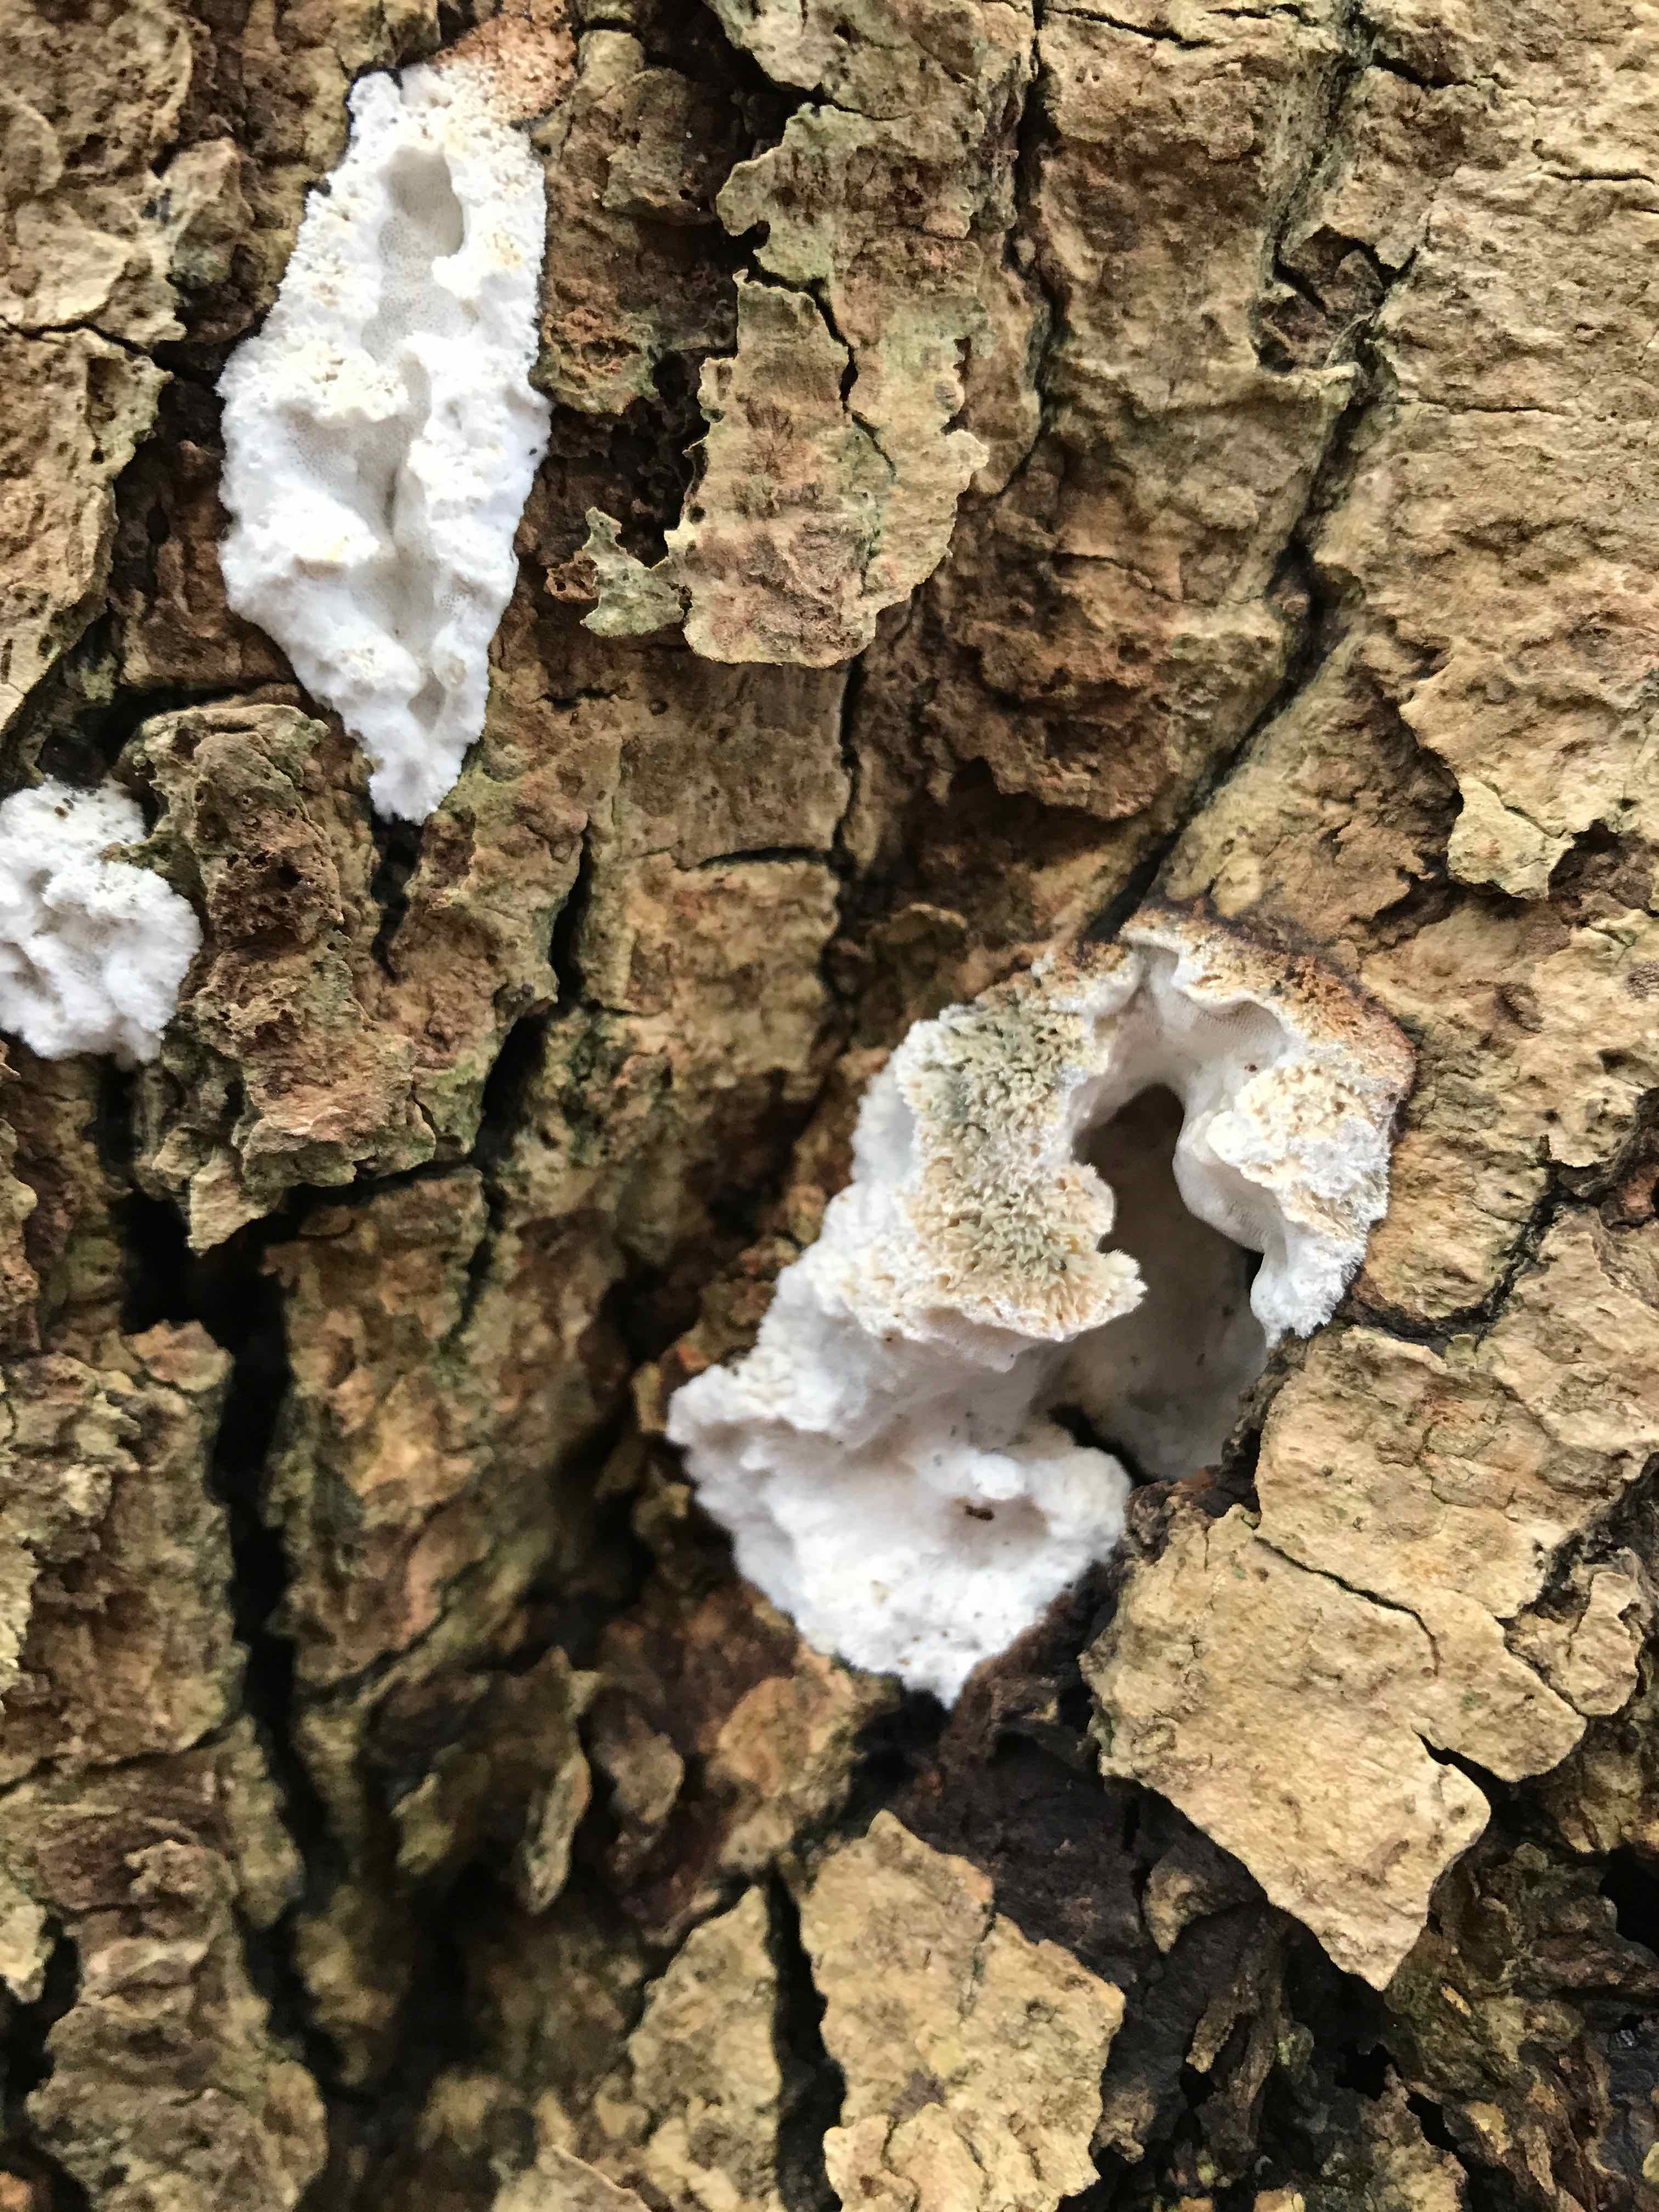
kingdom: Fungi
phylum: Basidiomycota
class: Agaricomycetes
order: Polyporales
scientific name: Polyporales
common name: poresvampordenen
